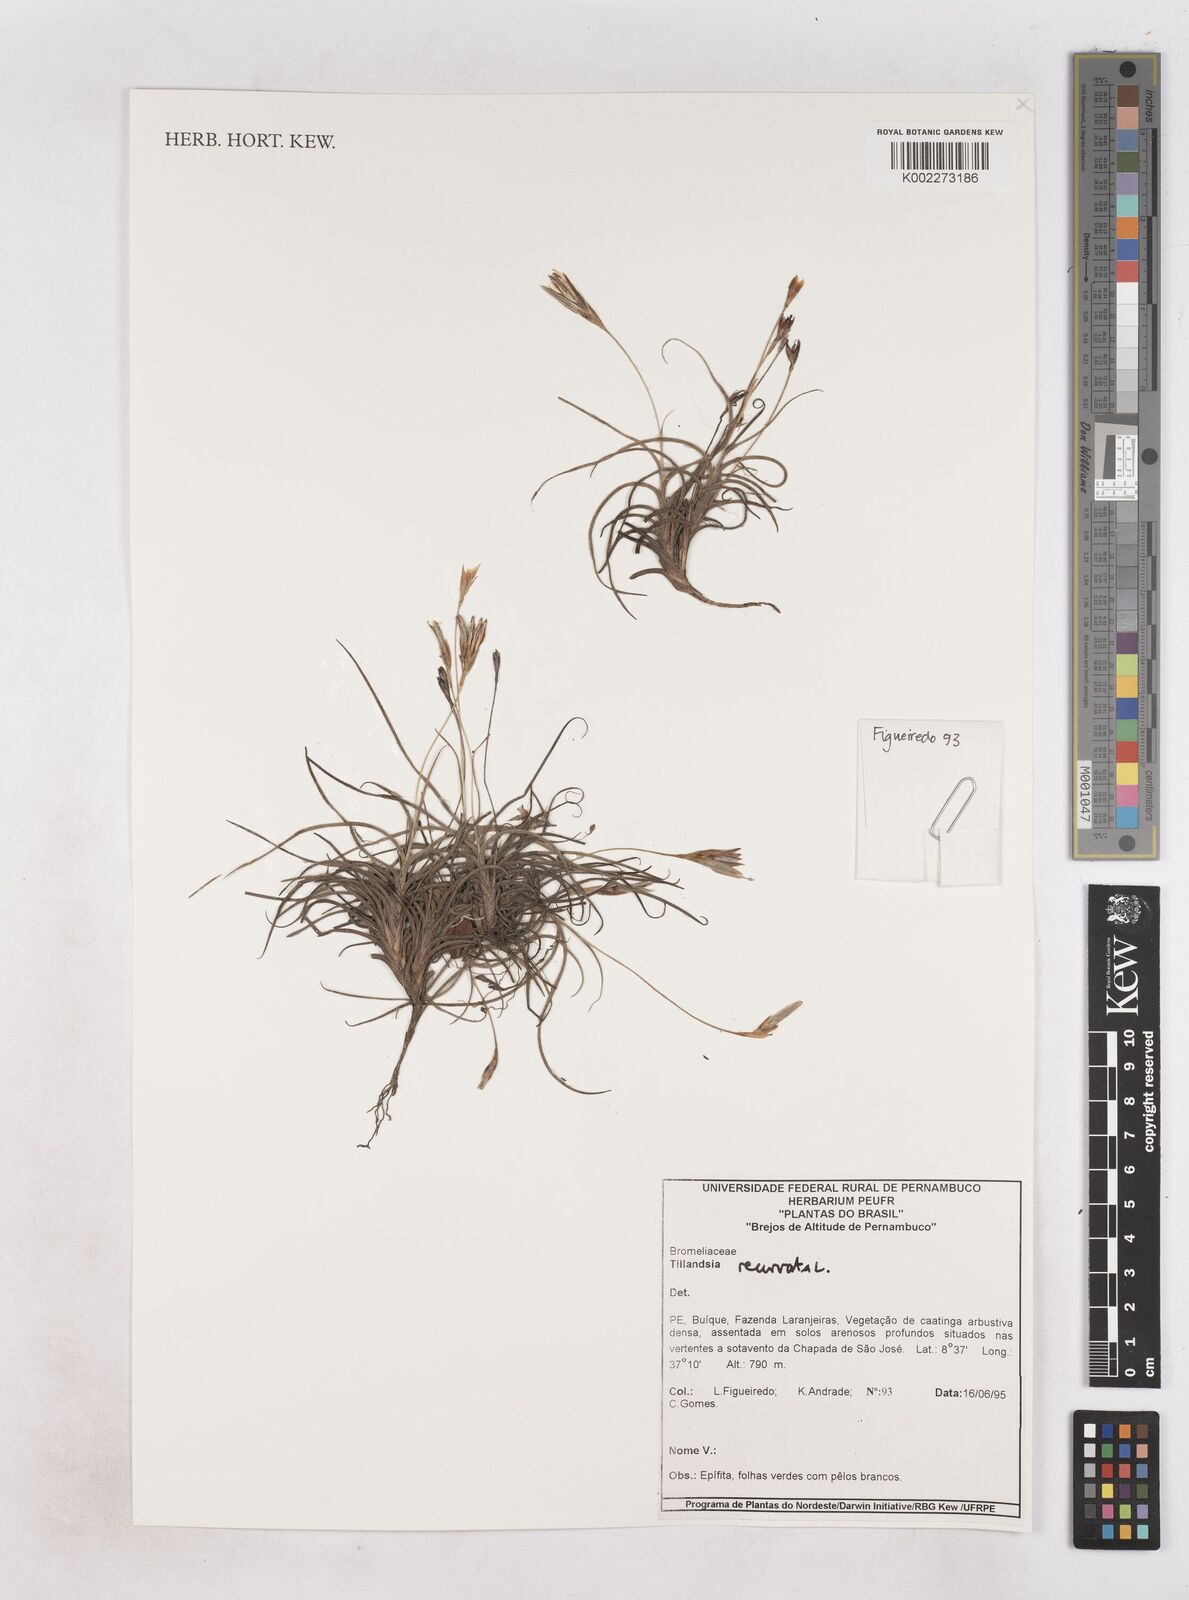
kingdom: Plantae
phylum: Tracheophyta
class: Liliopsida
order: Poales
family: Bromeliaceae
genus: Tillandsia
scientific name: Tillandsia recurvata
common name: Small ballmoss
